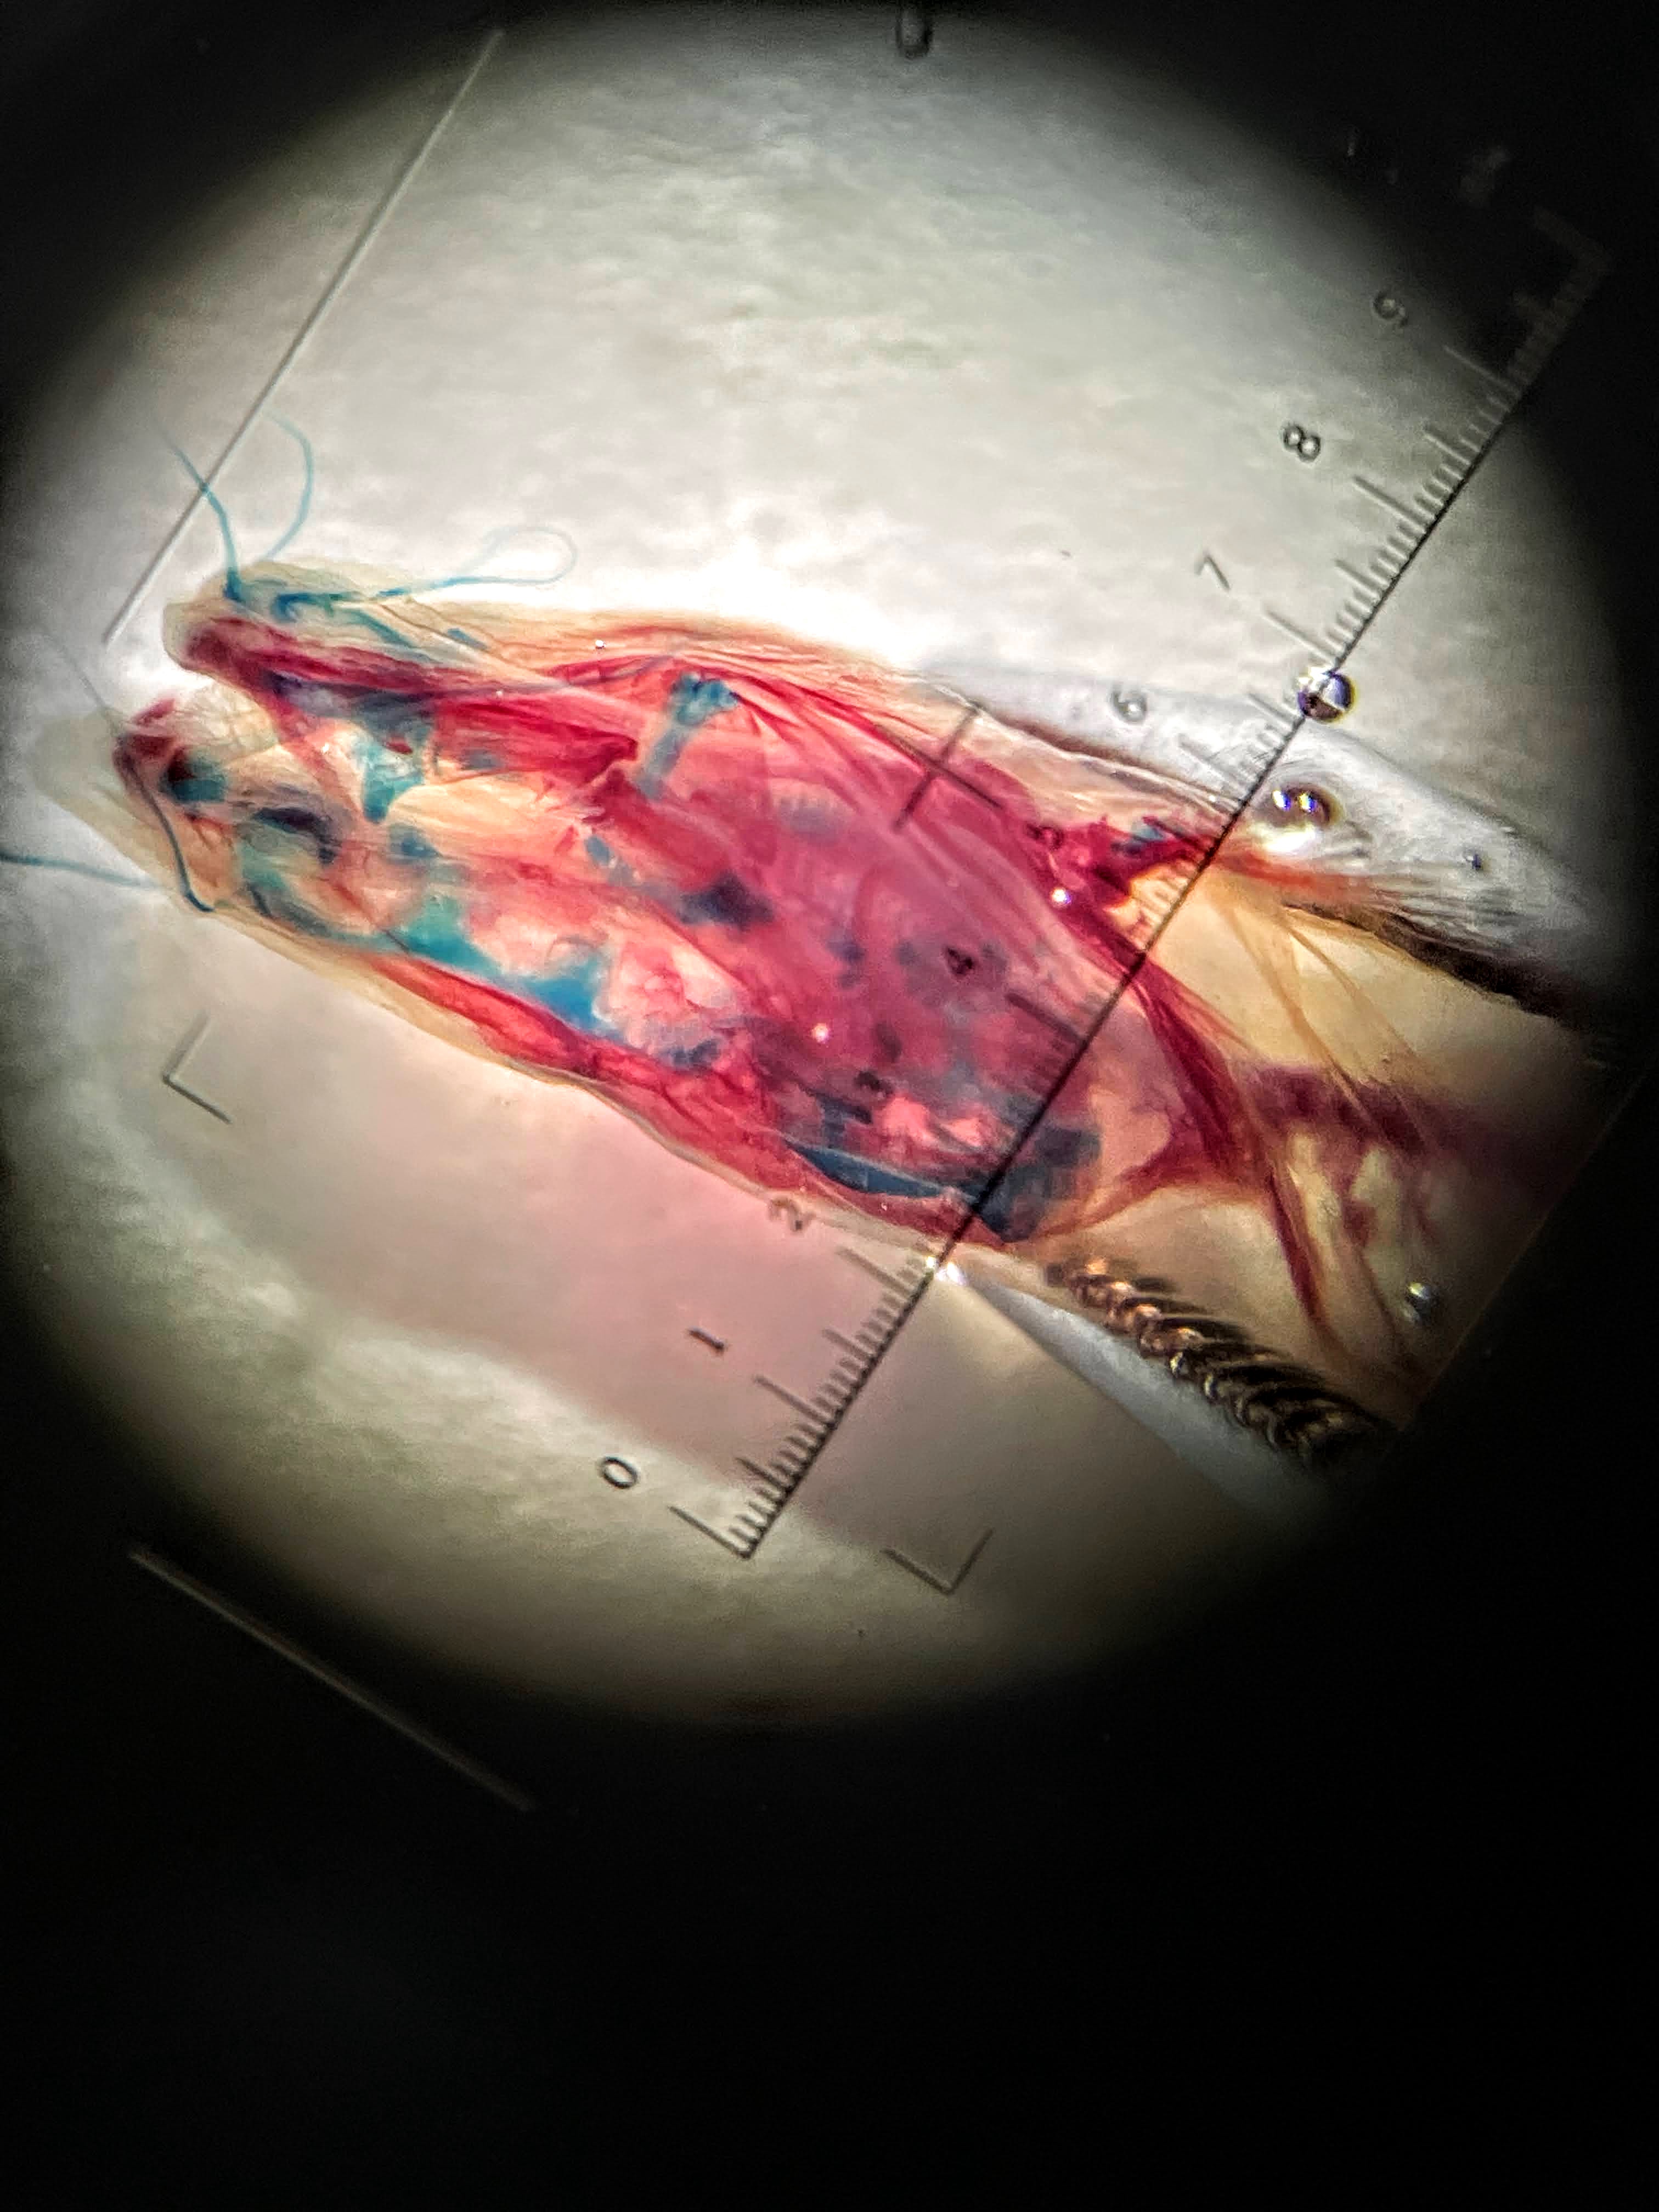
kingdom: Animalia
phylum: Chordata
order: Siluriformes
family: Ictaluridae
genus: Prietella
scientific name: Prietella lundbergi
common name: Phantom blindcat
